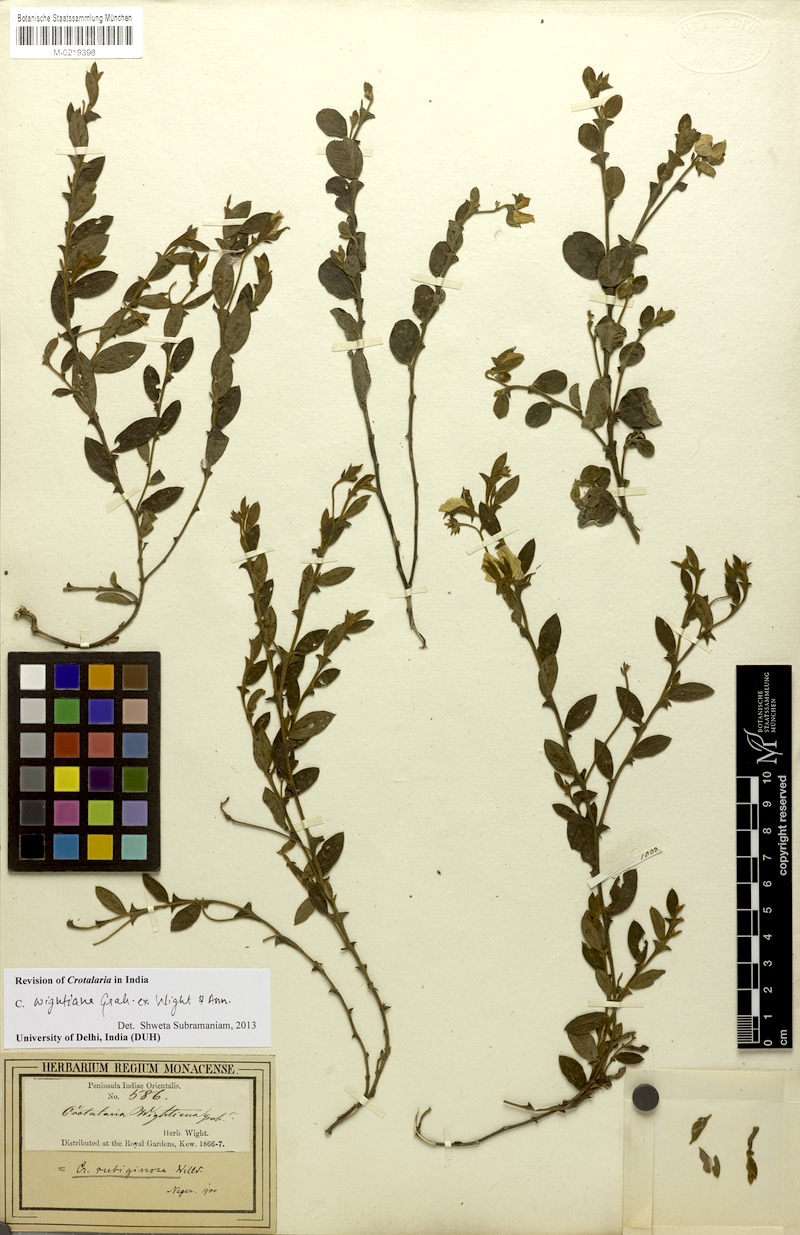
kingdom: Plantae
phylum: Tracheophyta
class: Magnoliopsida
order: Fabales
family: Fabaceae
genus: Crotalaria
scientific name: Crotalaria wightiana
